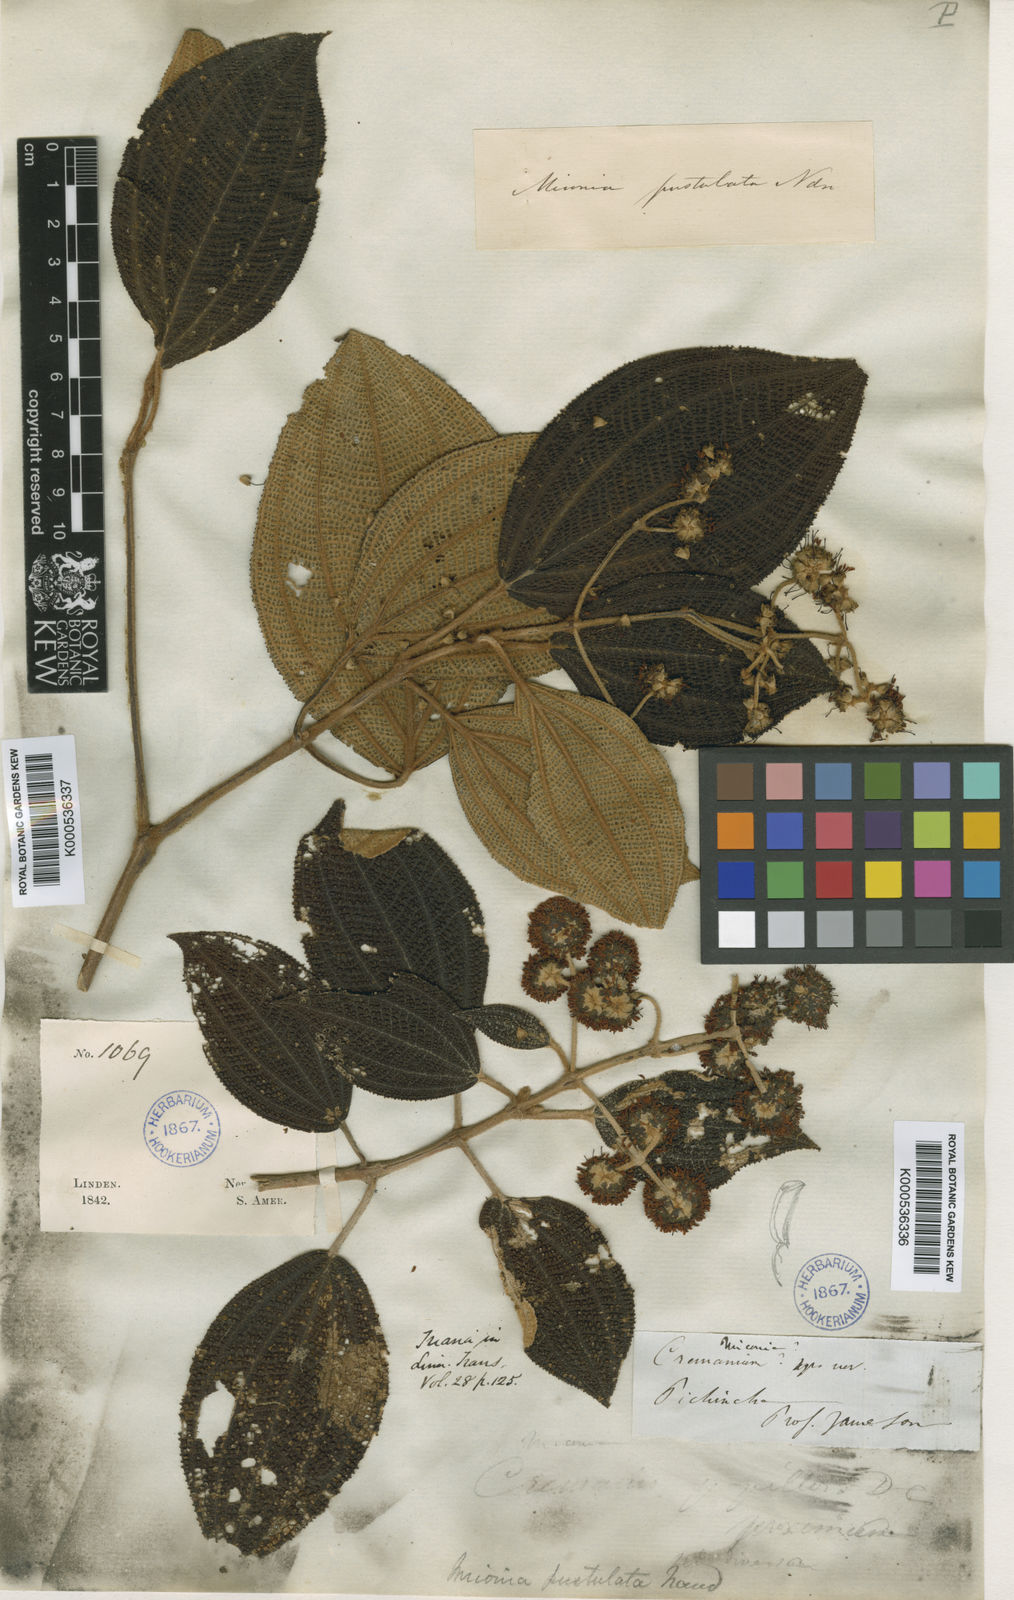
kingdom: Plantae
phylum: Tracheophyta
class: Magnoliopsida
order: Myrtales
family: Melastomataceae
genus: Miconia
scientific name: Miconia pustulata
